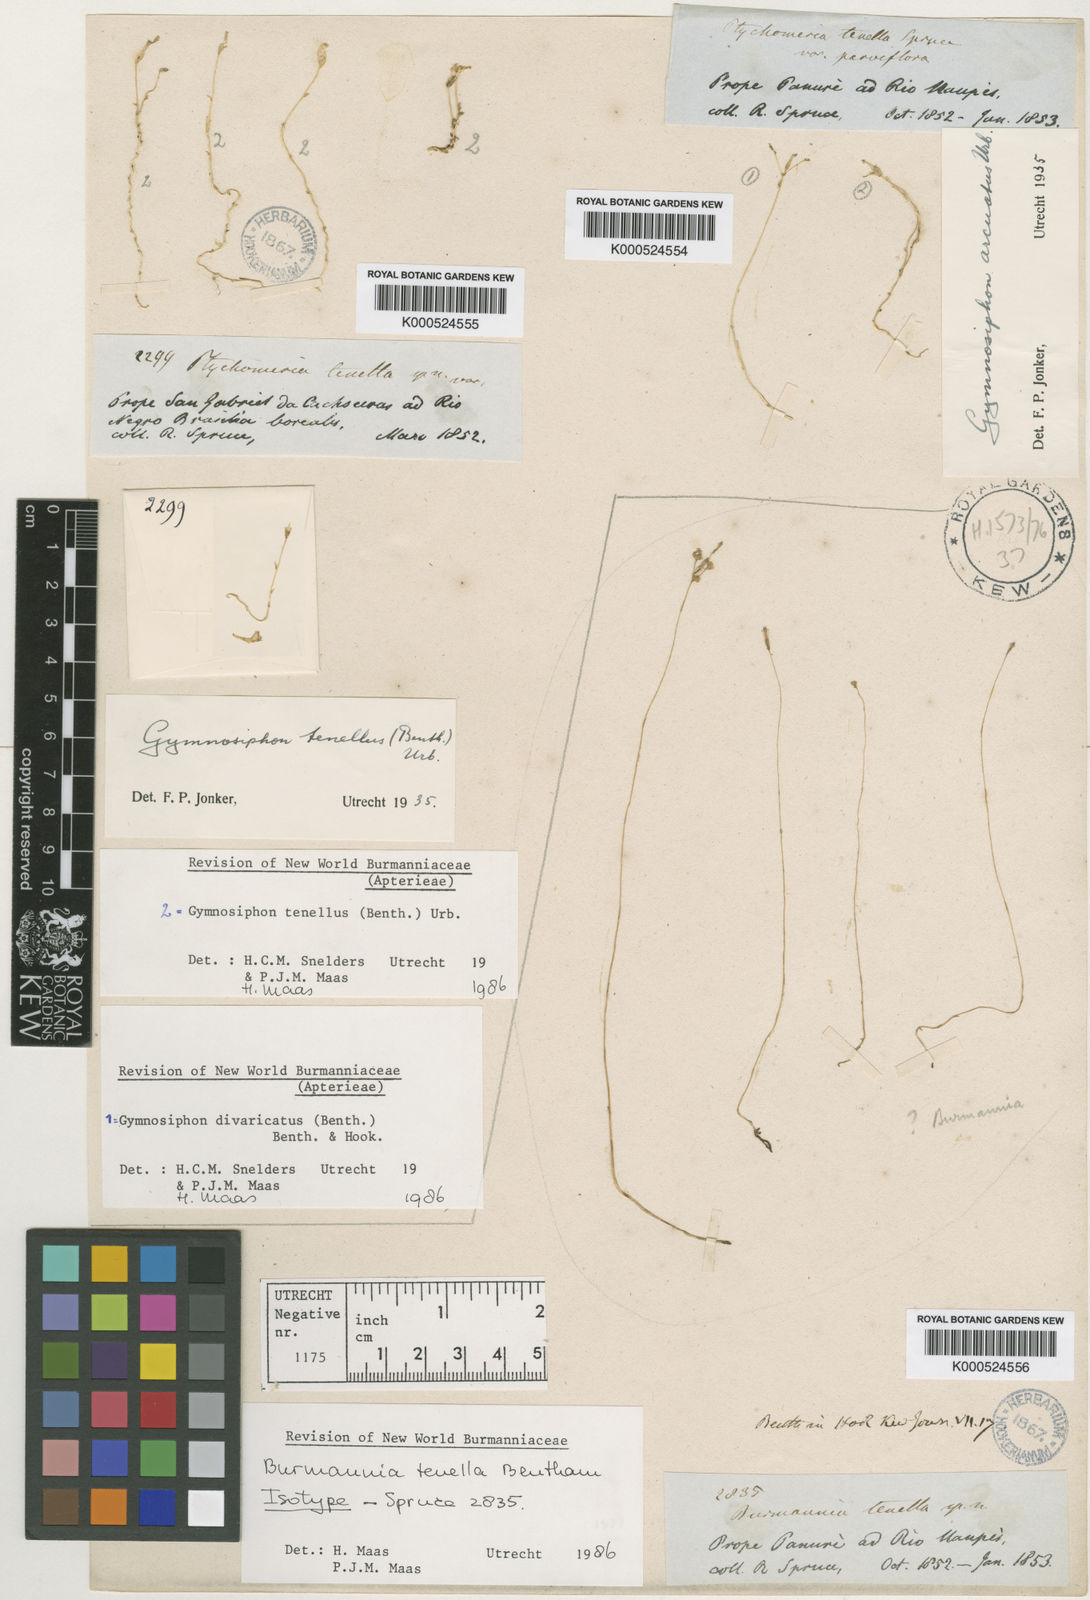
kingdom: Plantae
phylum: Tracheophyta
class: Liliopsida
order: Dioscoreales
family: Burmanniaceae
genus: Burmannia
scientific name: Burmannia tenella
